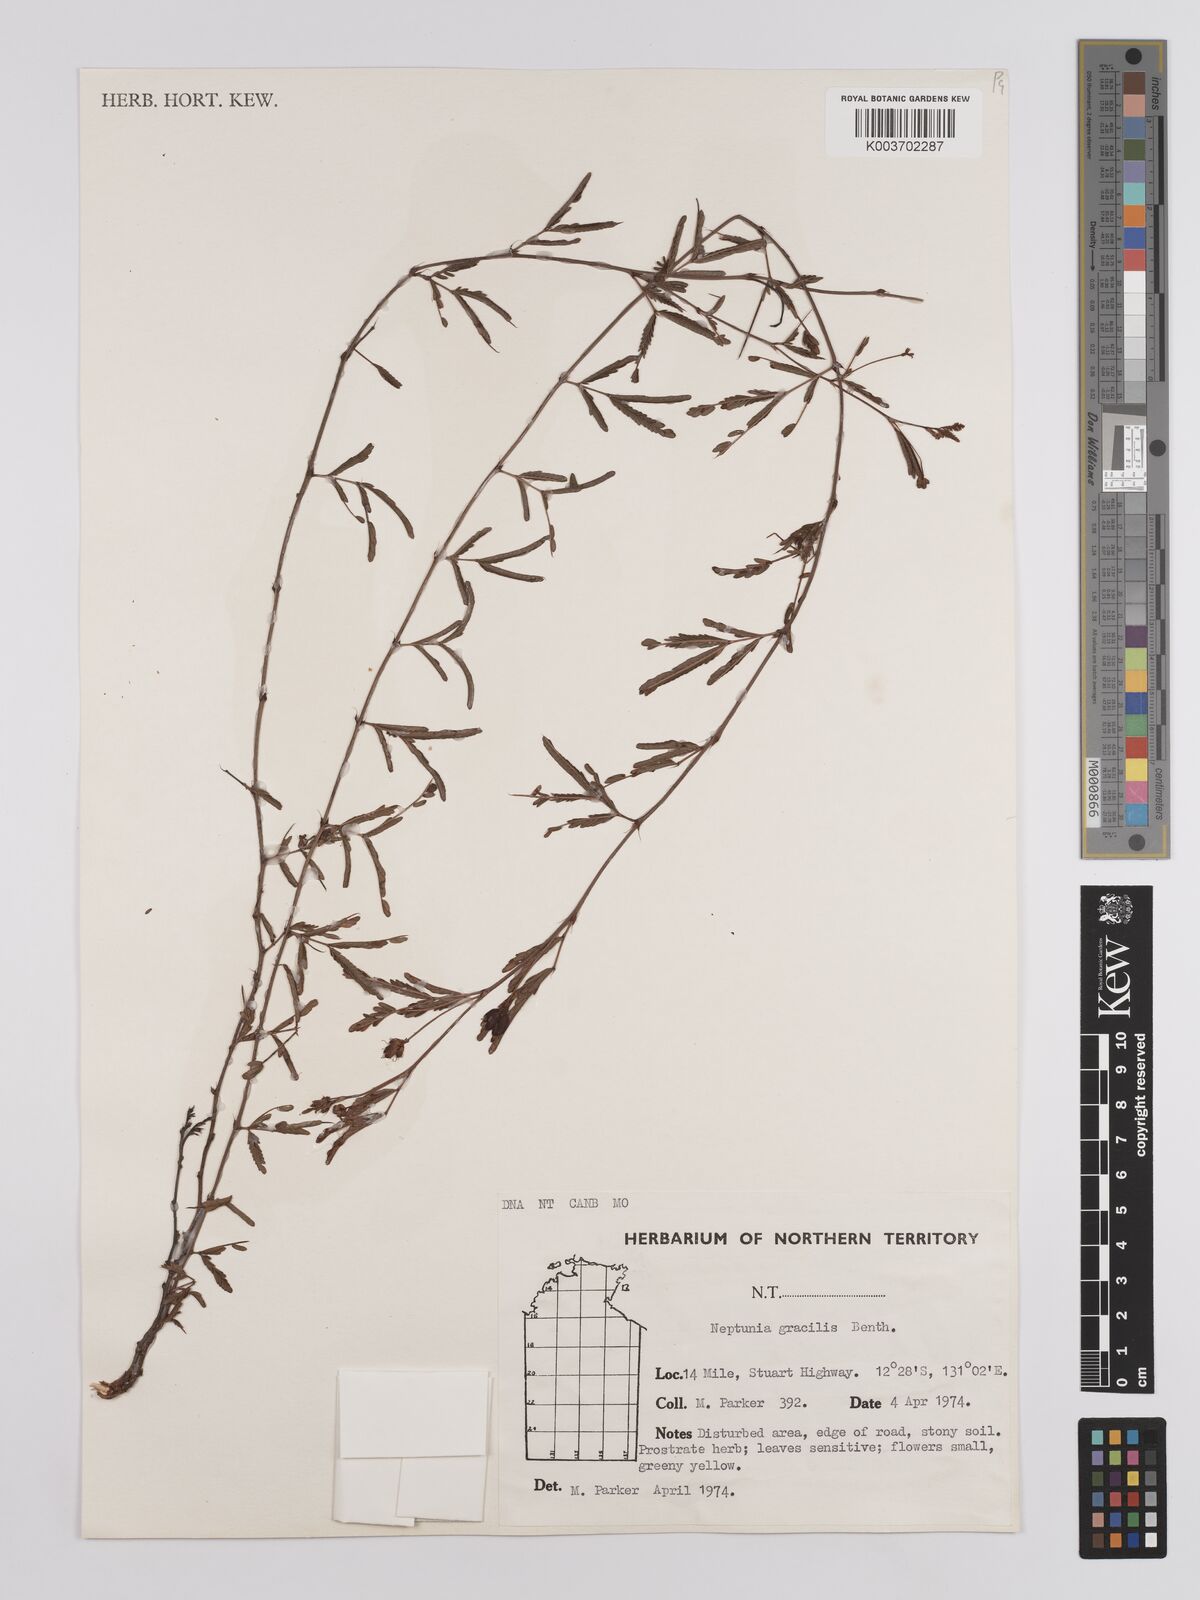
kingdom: Plantae
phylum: Tracheophyta
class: Magnoliopsida
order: Fabales
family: Fabaceae
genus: Neptunia
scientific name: Neptunia gracilis
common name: Sensitive-plant
